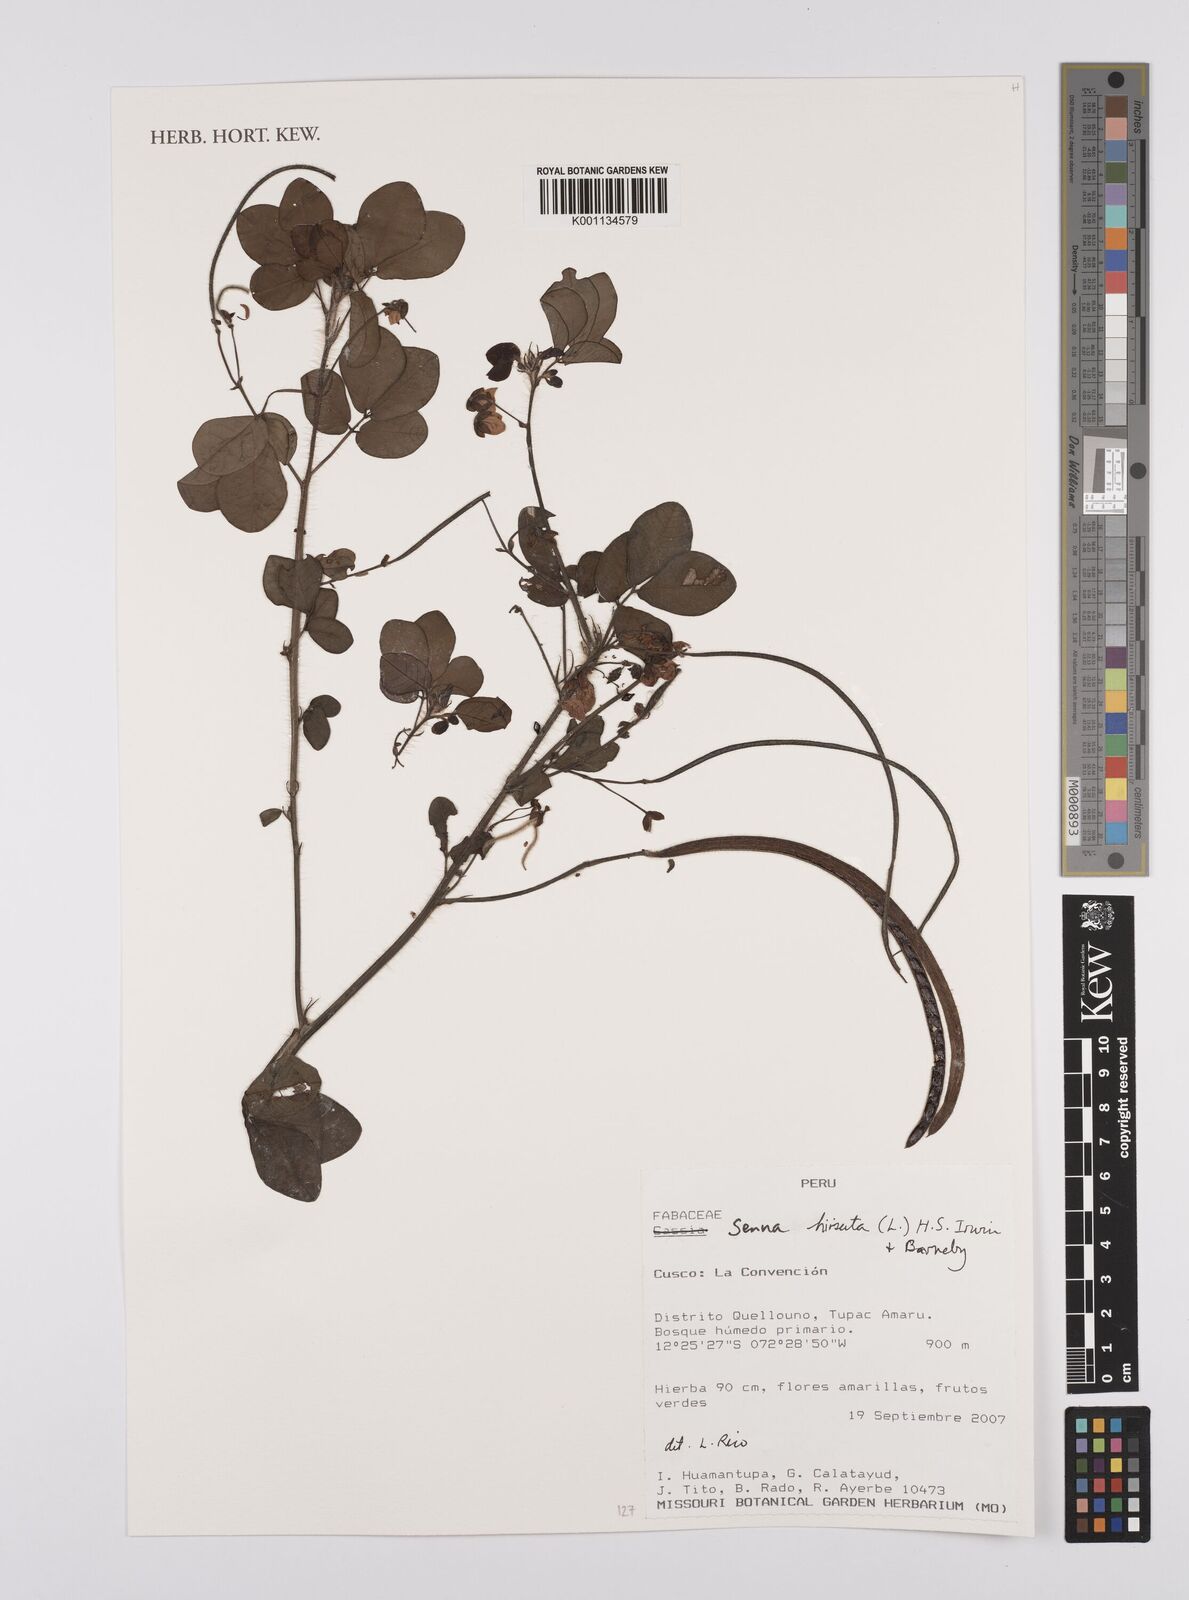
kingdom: Plantae
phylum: Tracheophyta
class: Magnoliopsida
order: Fabales
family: Fabaceae
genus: Senna
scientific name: Senna
